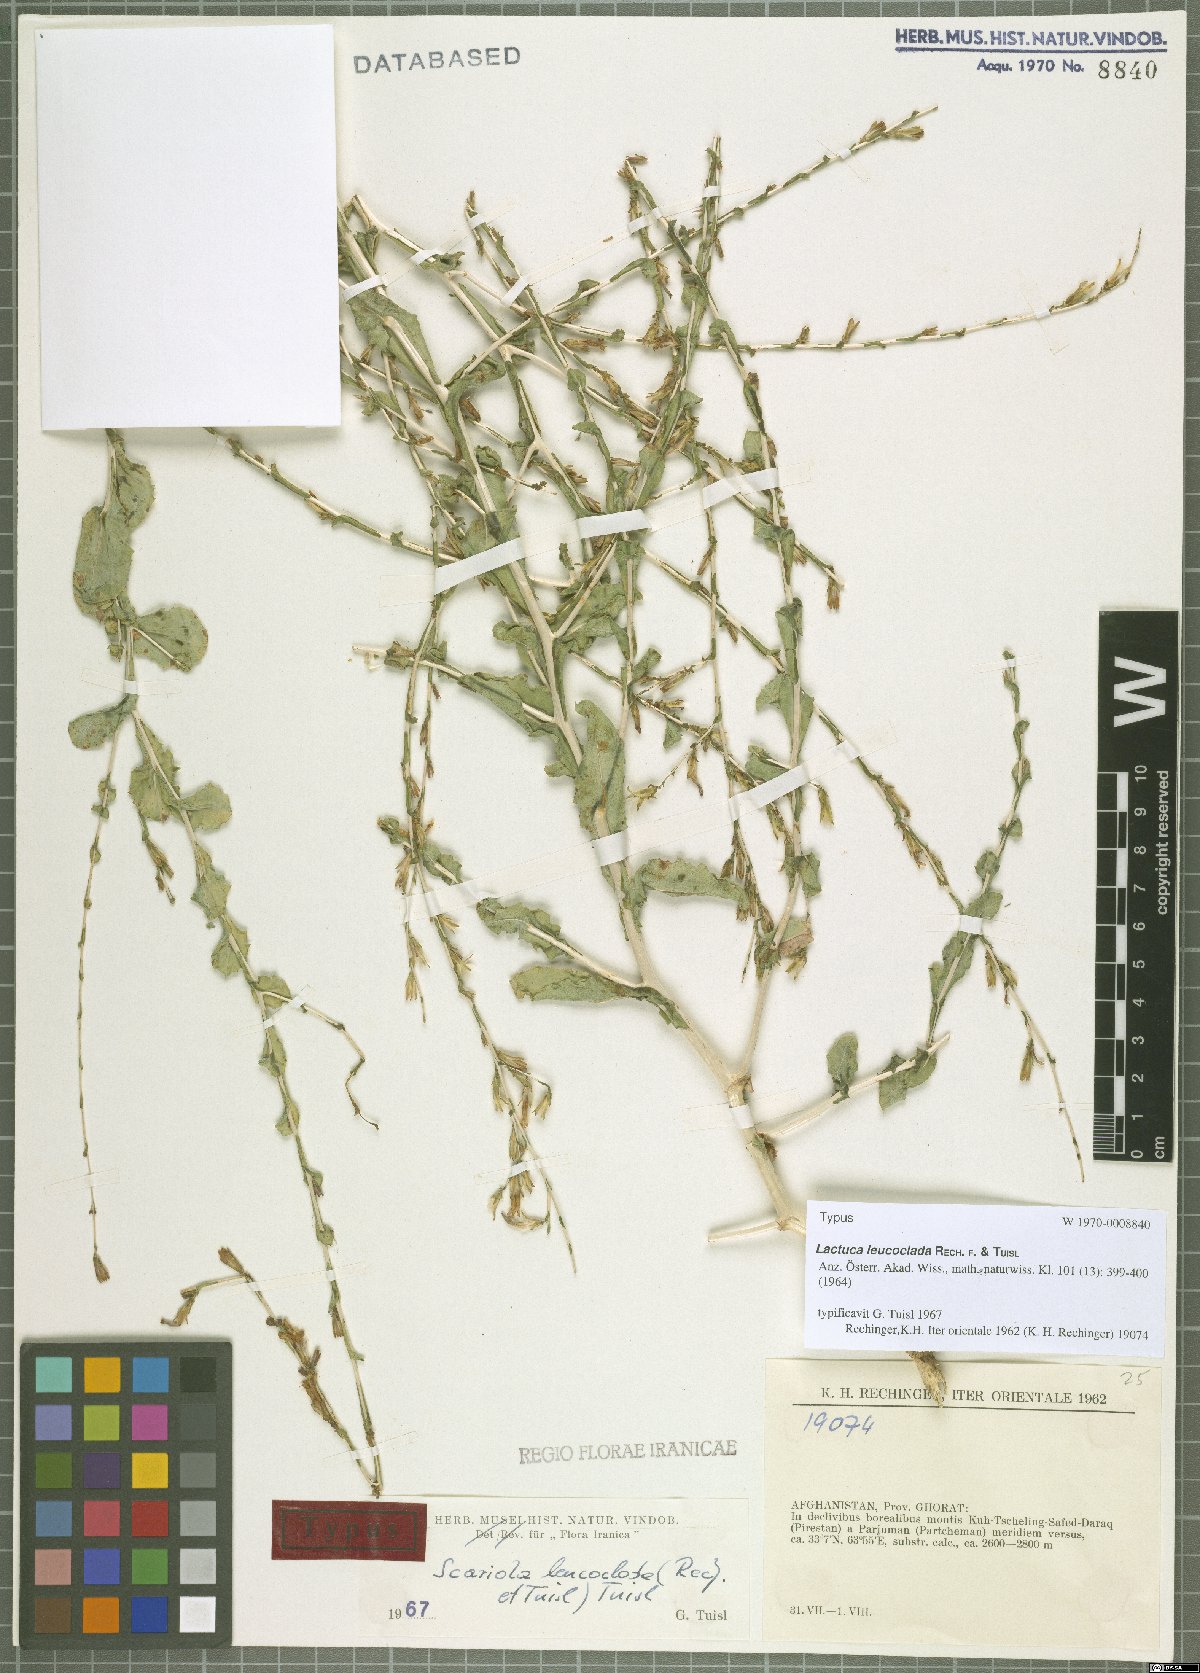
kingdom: Plantae
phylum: Tracheophyta
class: Magnoliopsida
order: Asterales
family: Asteraceae
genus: Lactuca
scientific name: Lactuca leucoclada
